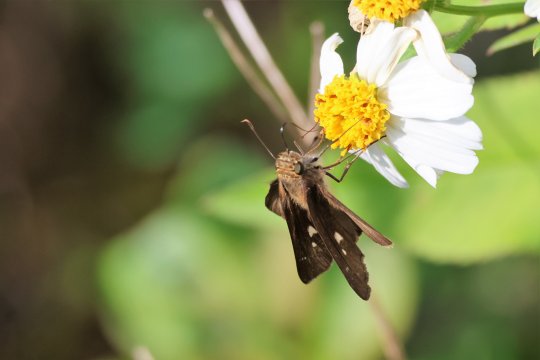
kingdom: Animalia
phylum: Arthropoda
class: Insecta
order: Lepidoptera
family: Hesperiidae
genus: Panoquina
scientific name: Panoquina ocola
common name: Ocola Skipper
